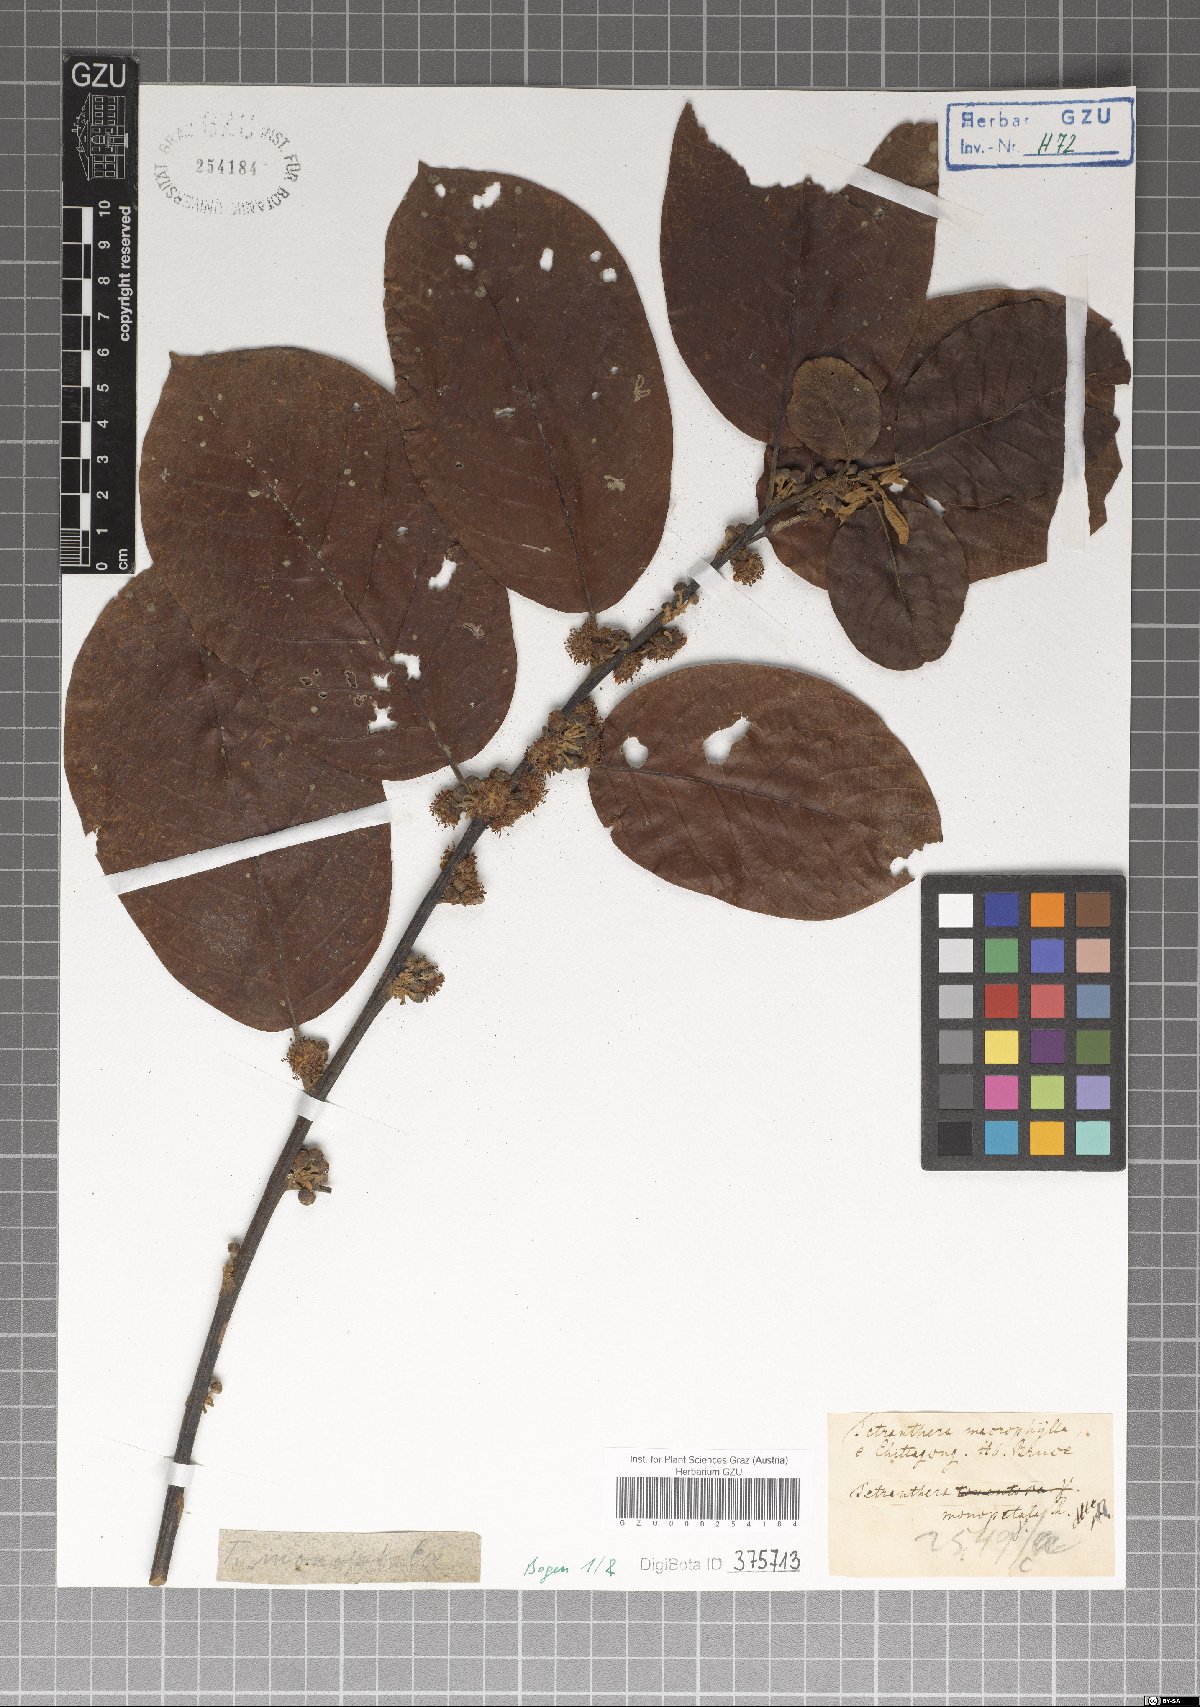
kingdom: Plantae
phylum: Tracheophyta
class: Magnoliopsida
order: Laurales
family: Lauraceae
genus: Litsea
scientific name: Litsea monopetala
